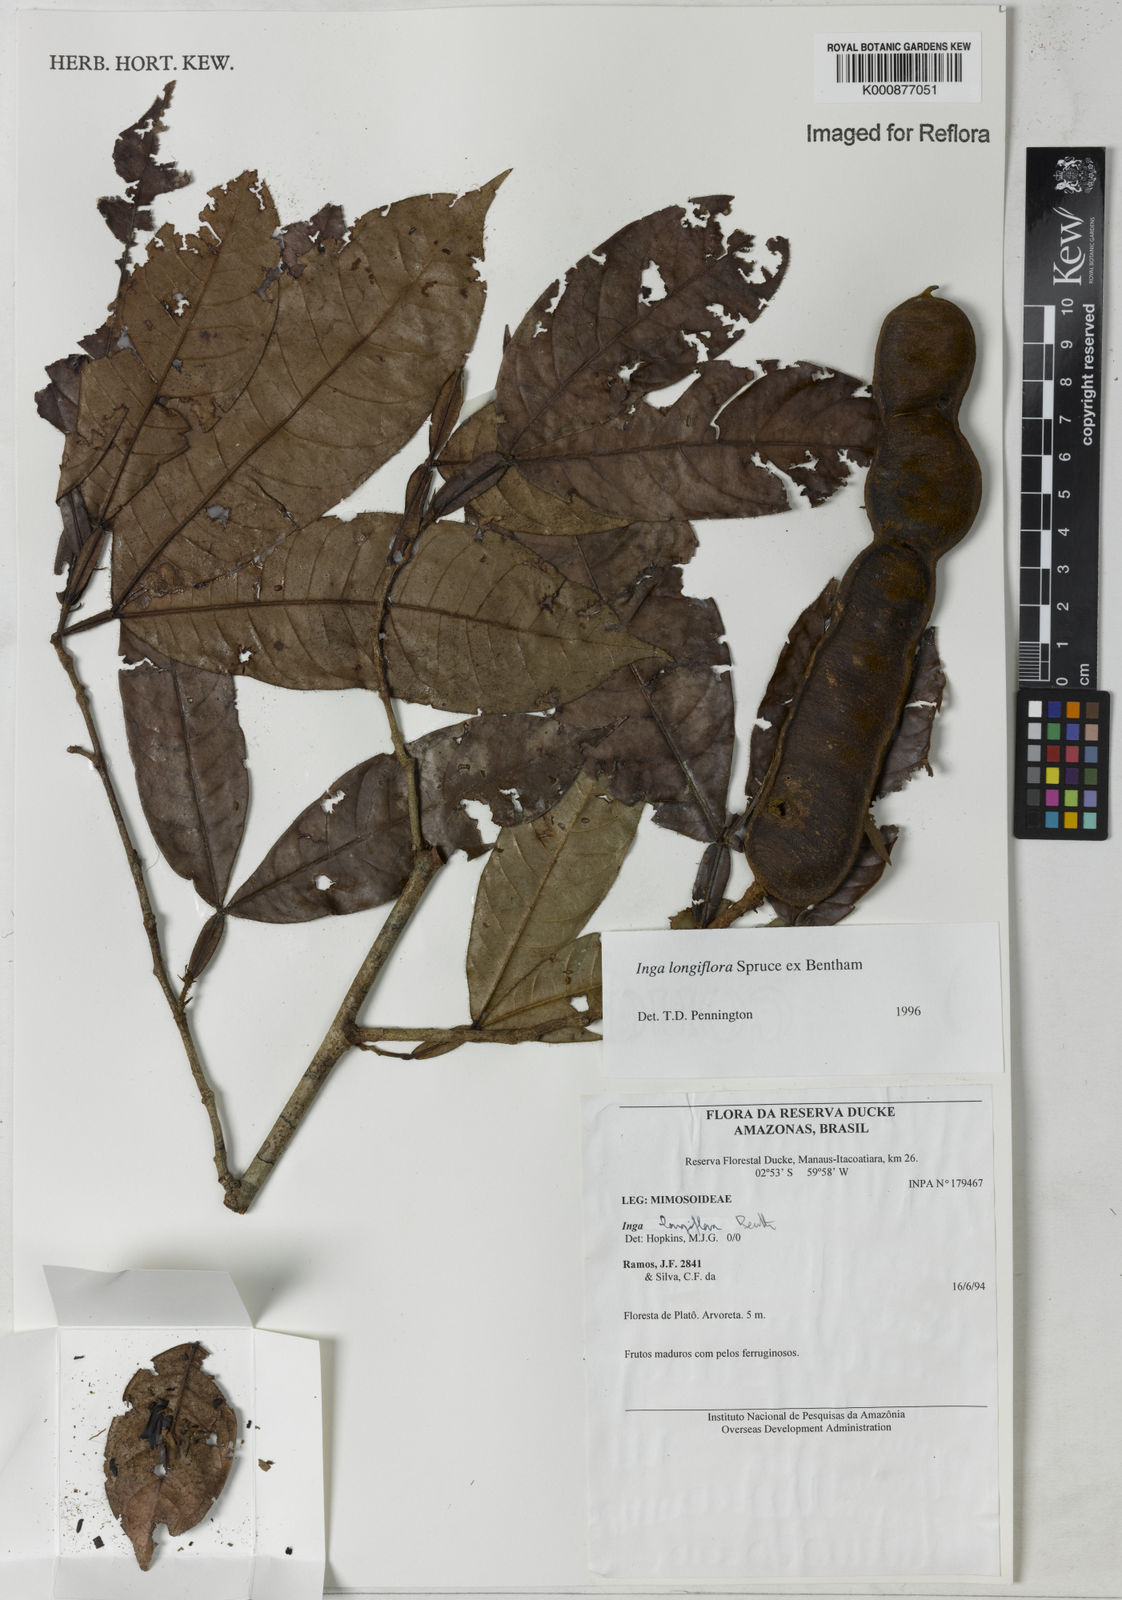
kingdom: Plantae
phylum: Tracheophyta
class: Magnoliopsida
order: Fabales
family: Fabaceae
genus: Inga
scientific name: Inga longiflora
